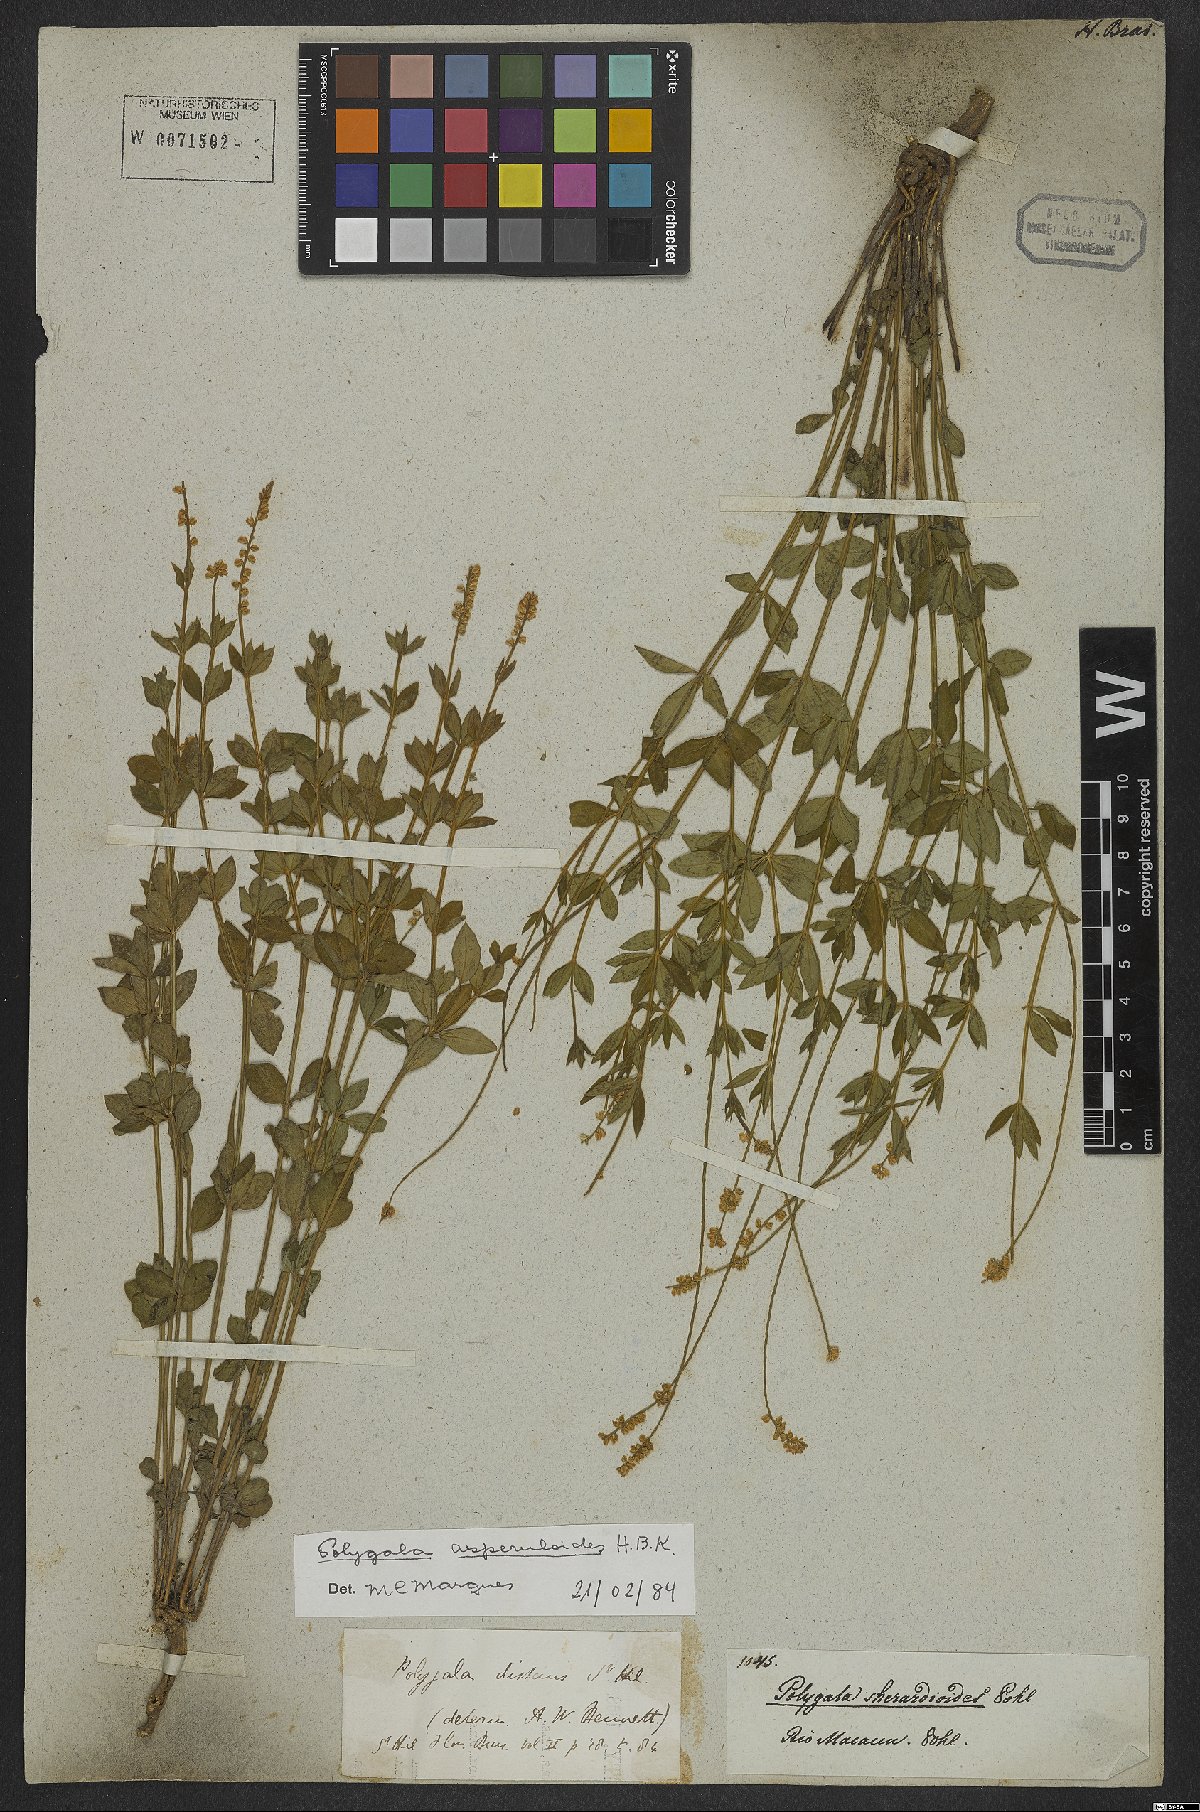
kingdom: Plantae
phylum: Tracheophyta
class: Magnoliopsida
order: Fabales
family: Polygalaceae
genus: Polygala
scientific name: Polygala asperuloides
